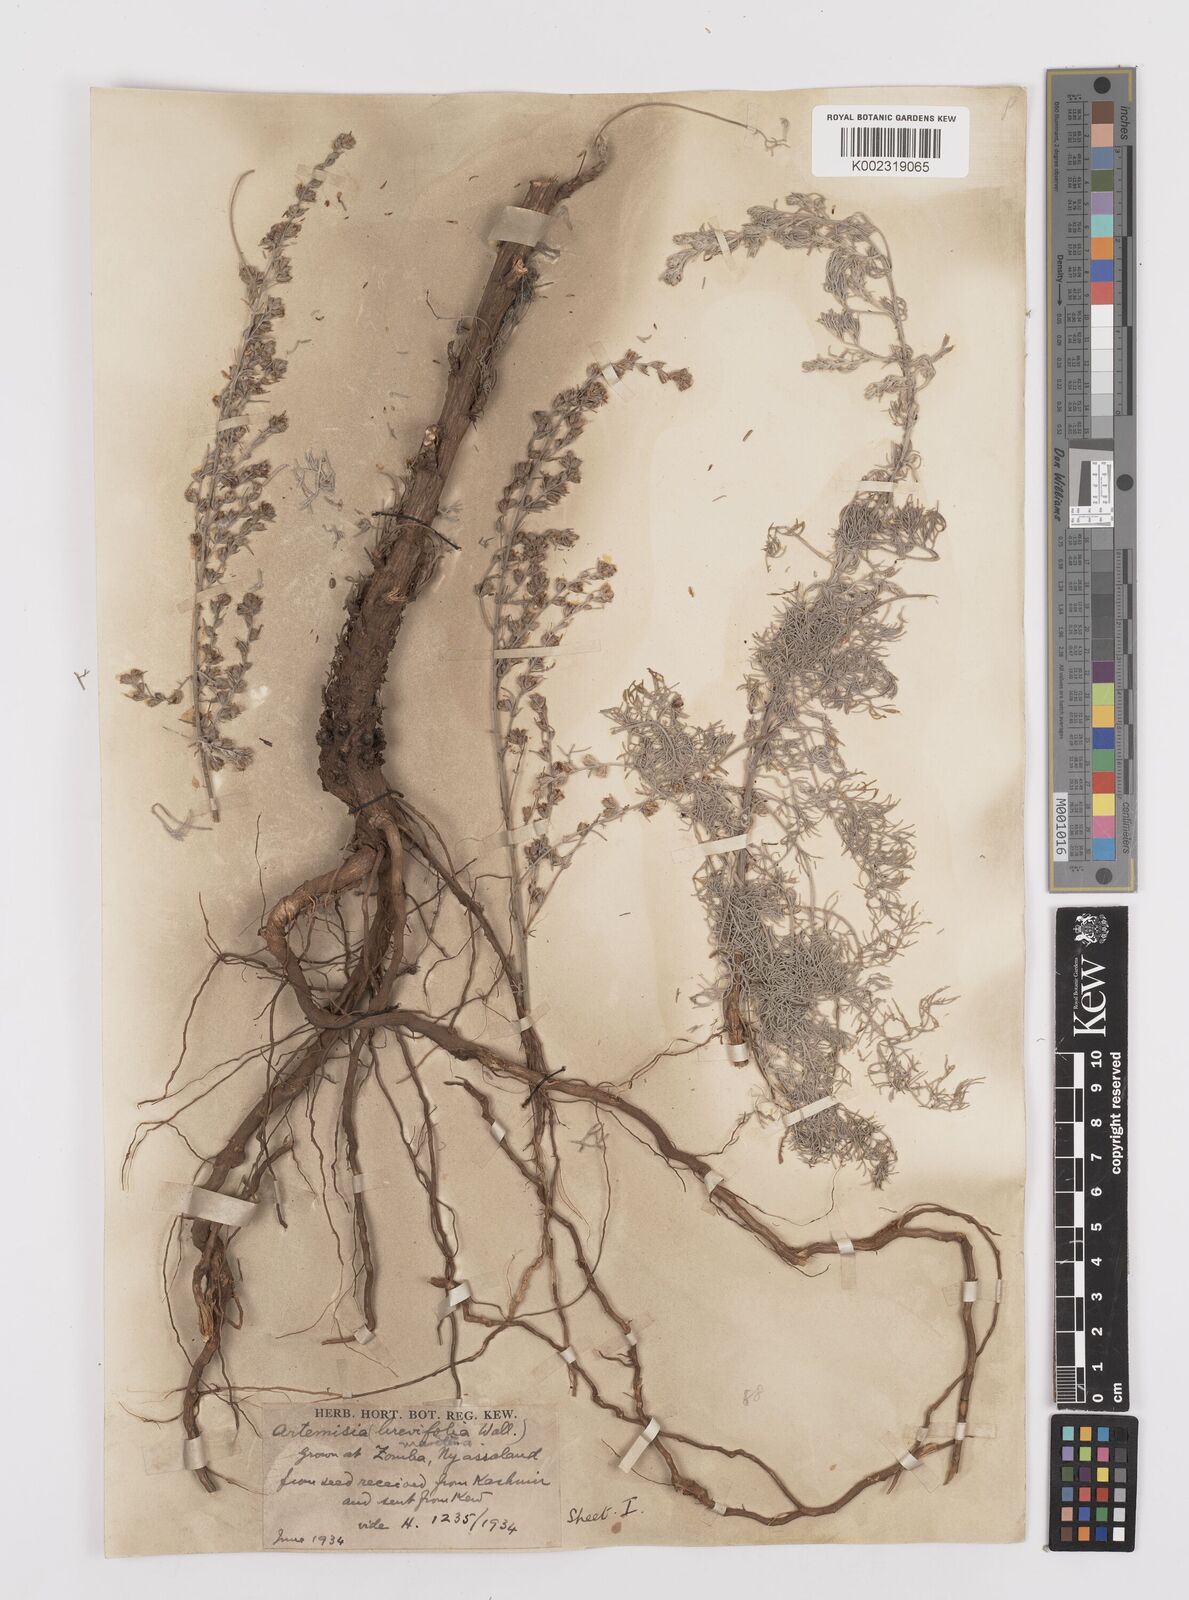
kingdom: Plantae
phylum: Tracheophyta
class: Magnoliopsida
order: Asterales
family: Asteraceae
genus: Artemisia
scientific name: Artemisia brevifolia
